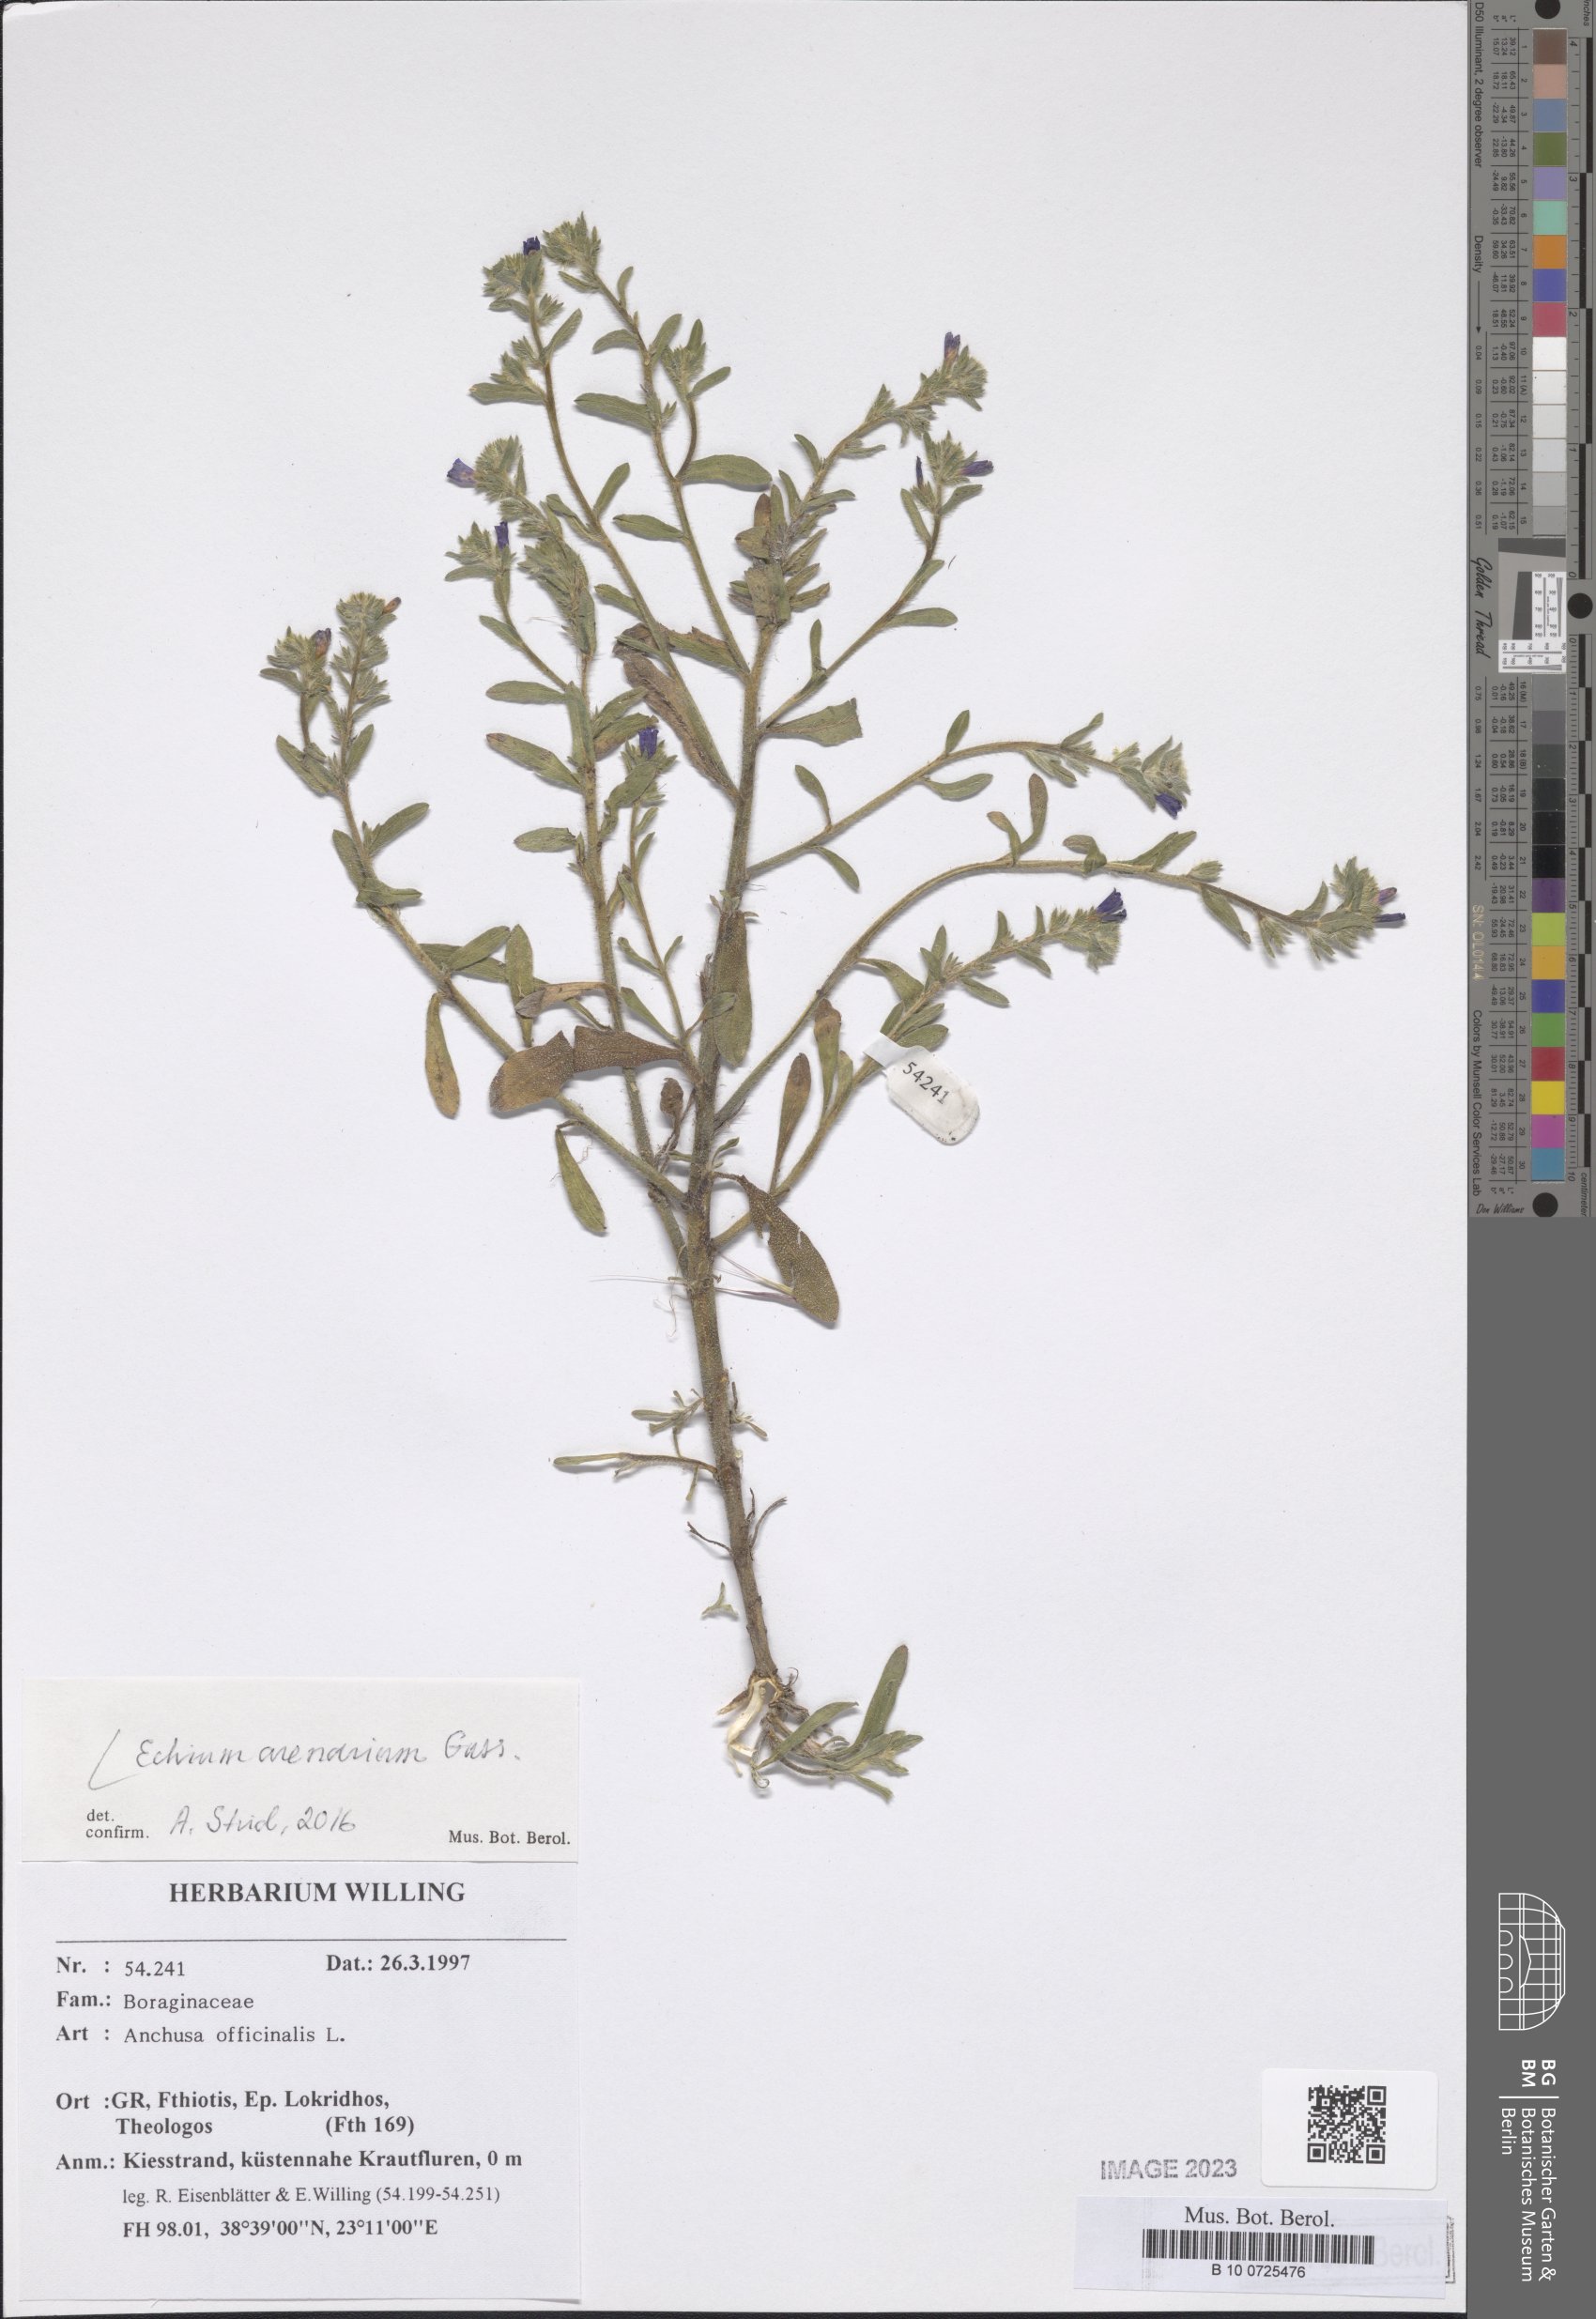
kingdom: Plantae
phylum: Tracheophyta
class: Magnoliopsida
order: Boraginales
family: Boraginaceae
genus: Echium
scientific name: Echium arenarium
